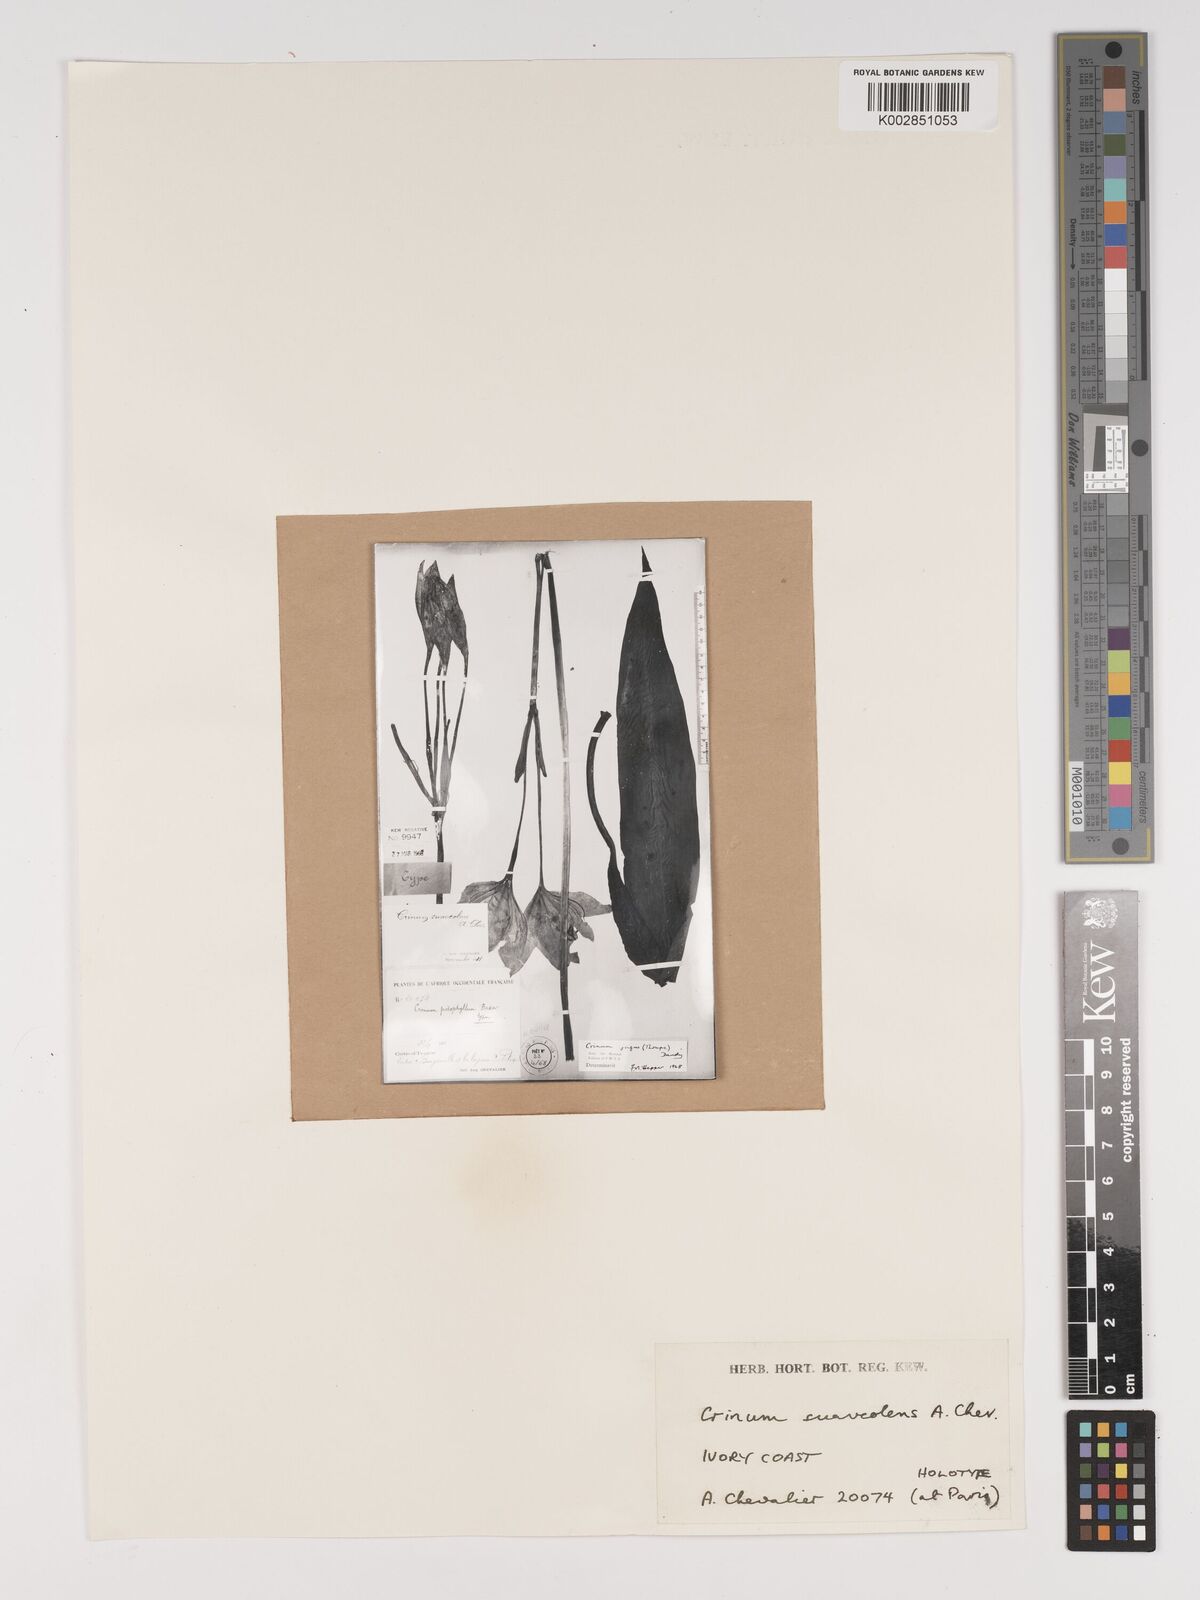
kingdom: Plantae
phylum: Tracheophyta
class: Liliopsida
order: Asparagales
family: Amaryllidaceae
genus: Crinum
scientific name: Crinum jagus
